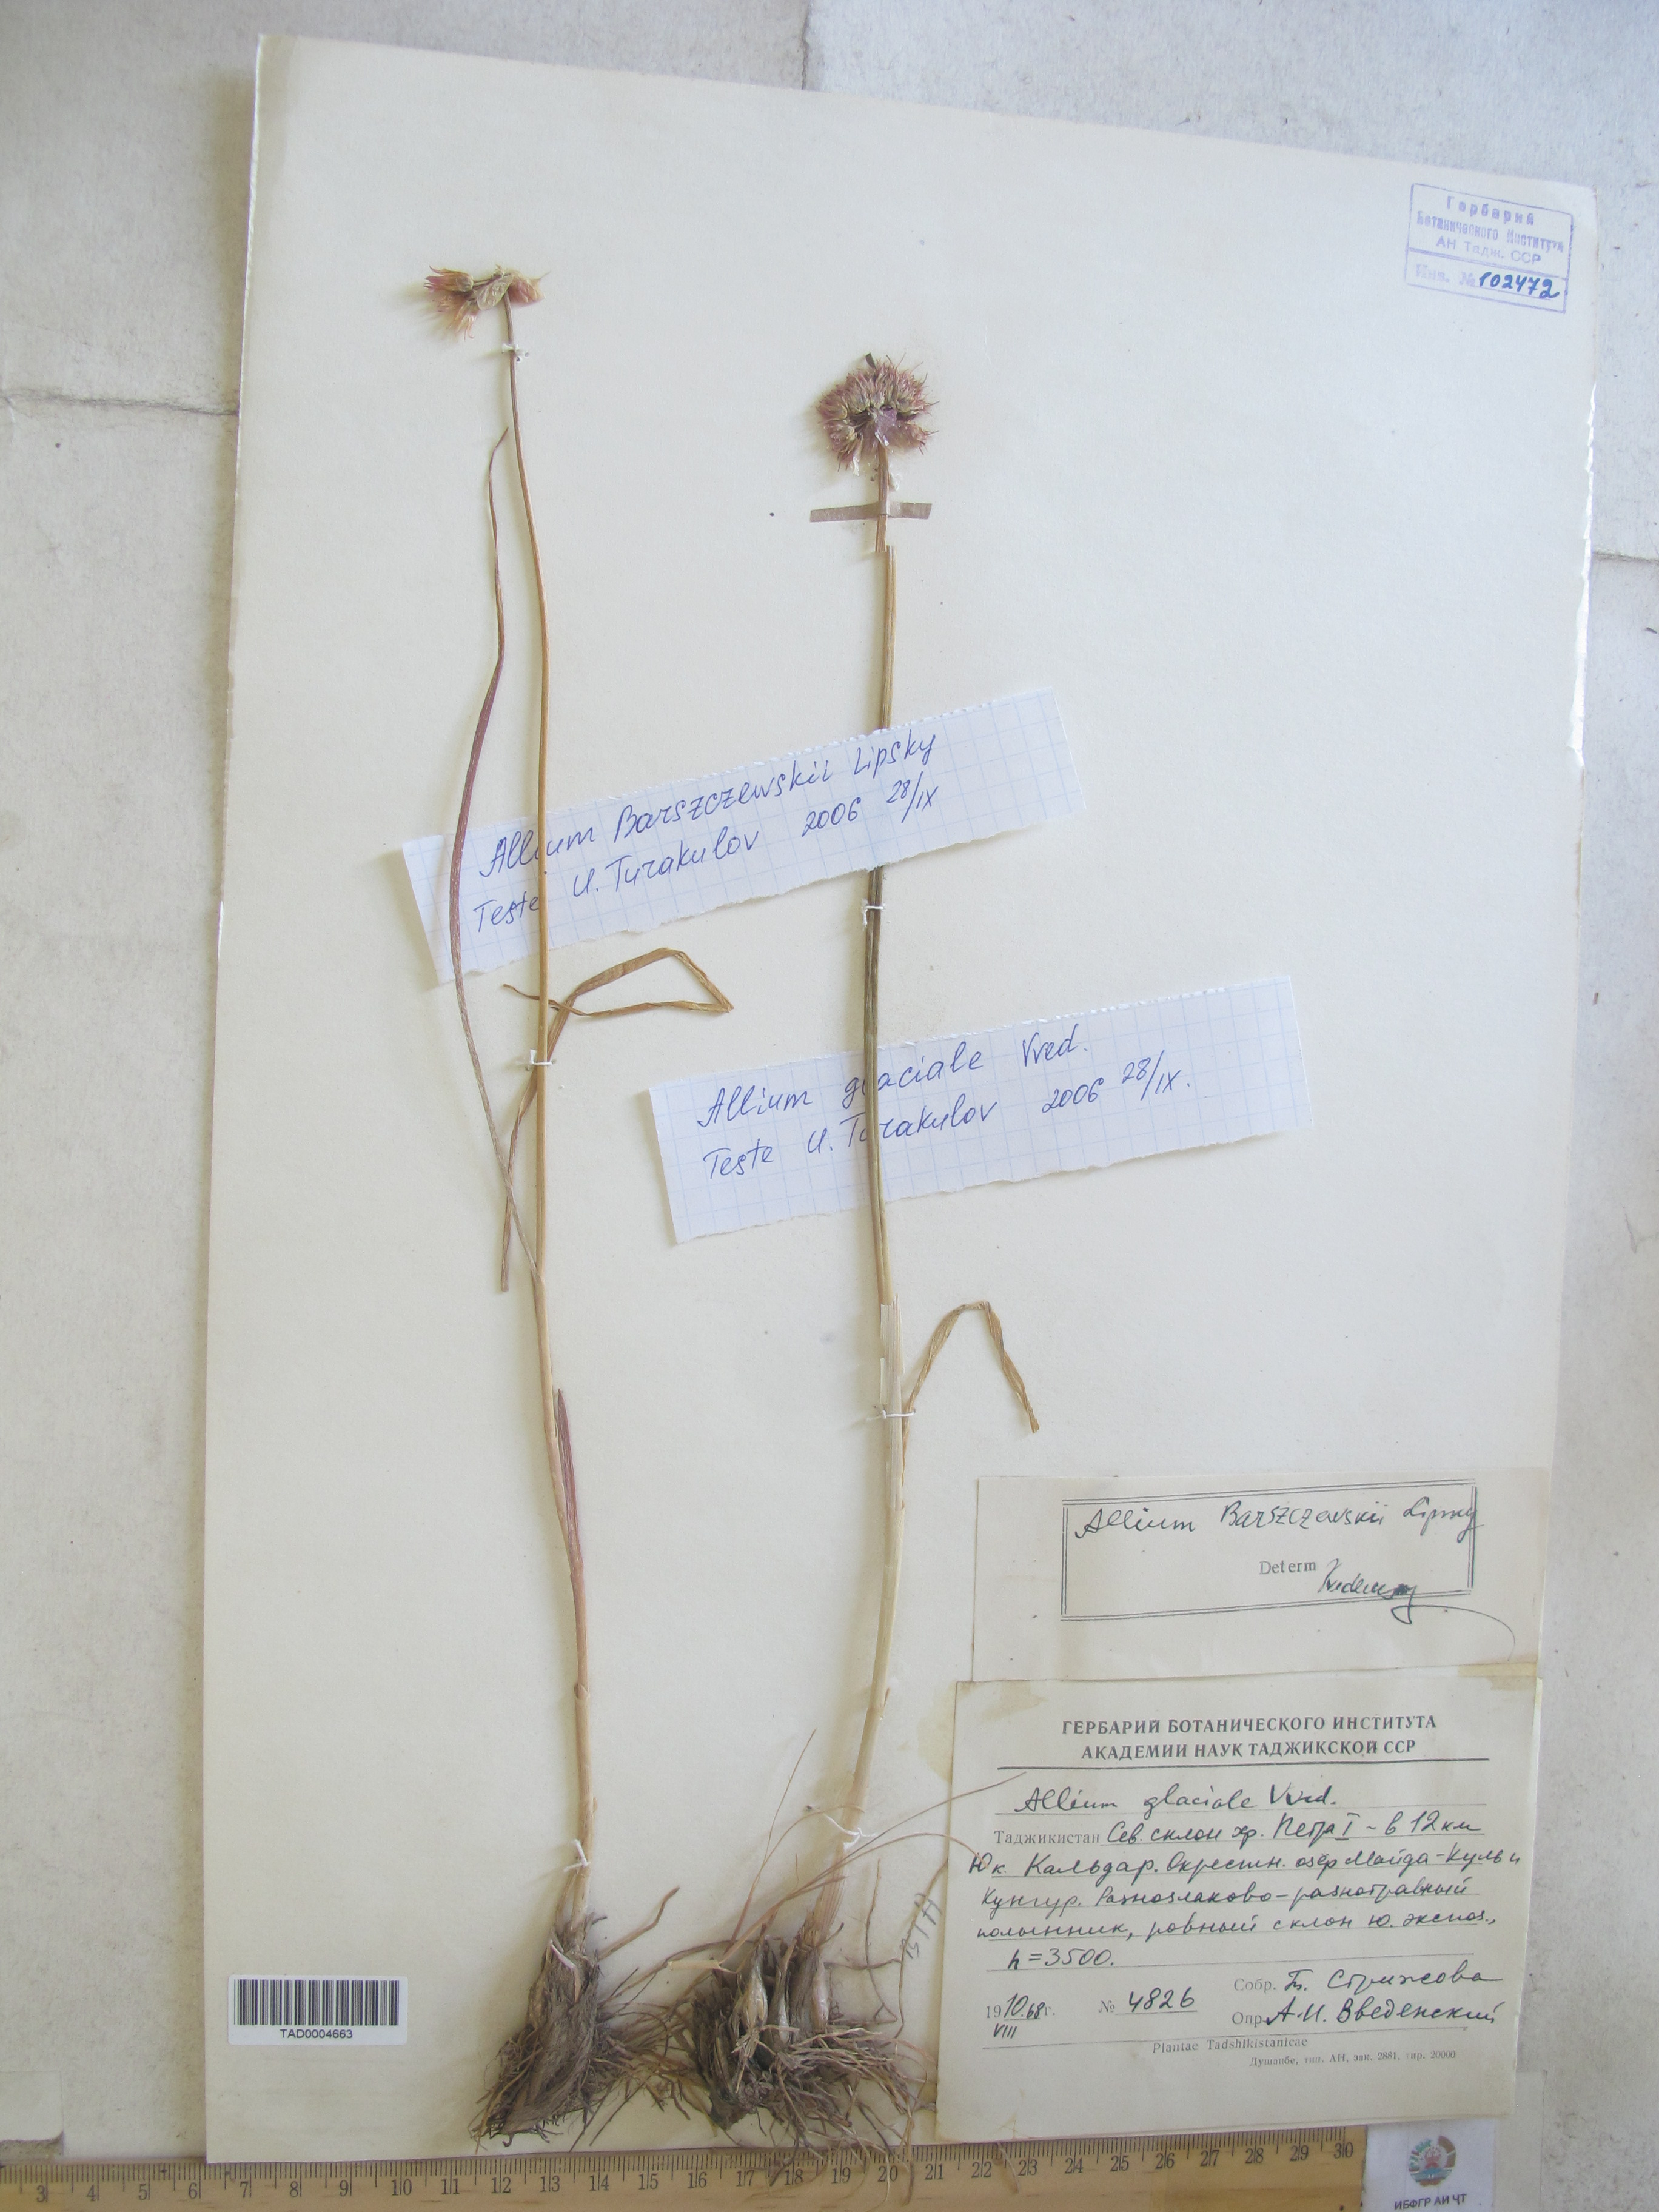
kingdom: Plantae
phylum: Tracheophyta
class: Liliopsida
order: Asparagales
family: Amaryllidaceae
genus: Allium
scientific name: Allium glaciale
